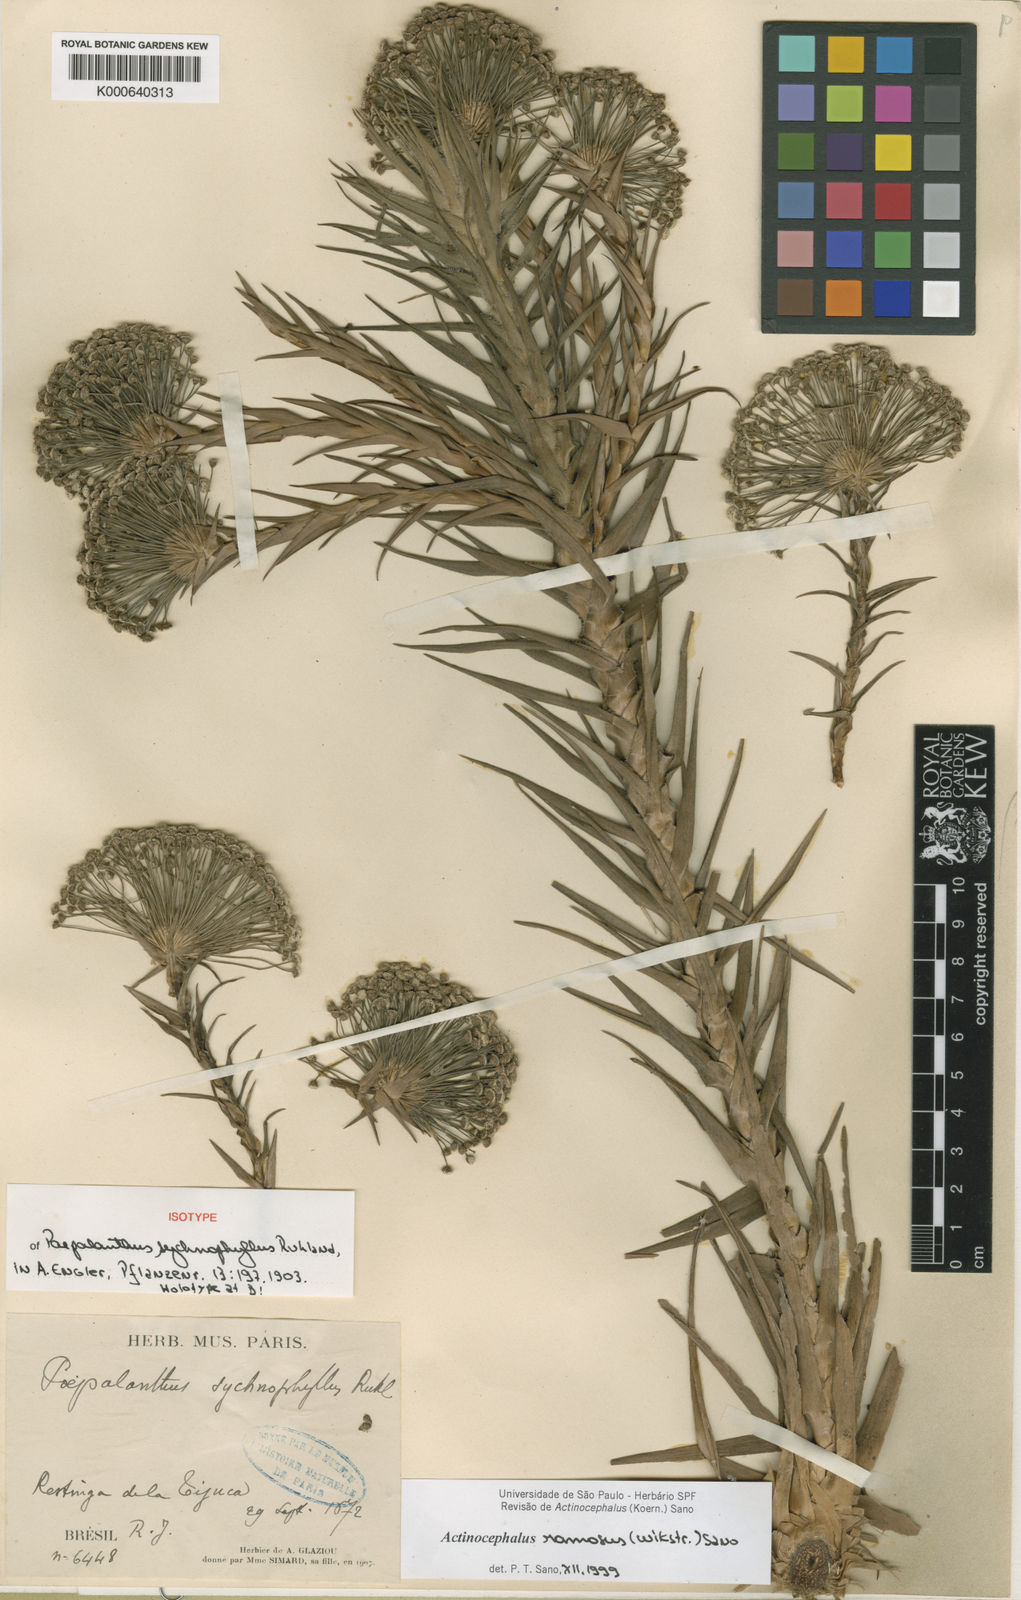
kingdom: Plantae
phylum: Tracheophyta
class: Liliopsida
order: Poales
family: Eriocaulaceae
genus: Paepalanthus
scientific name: Paepalanthus ramosus
